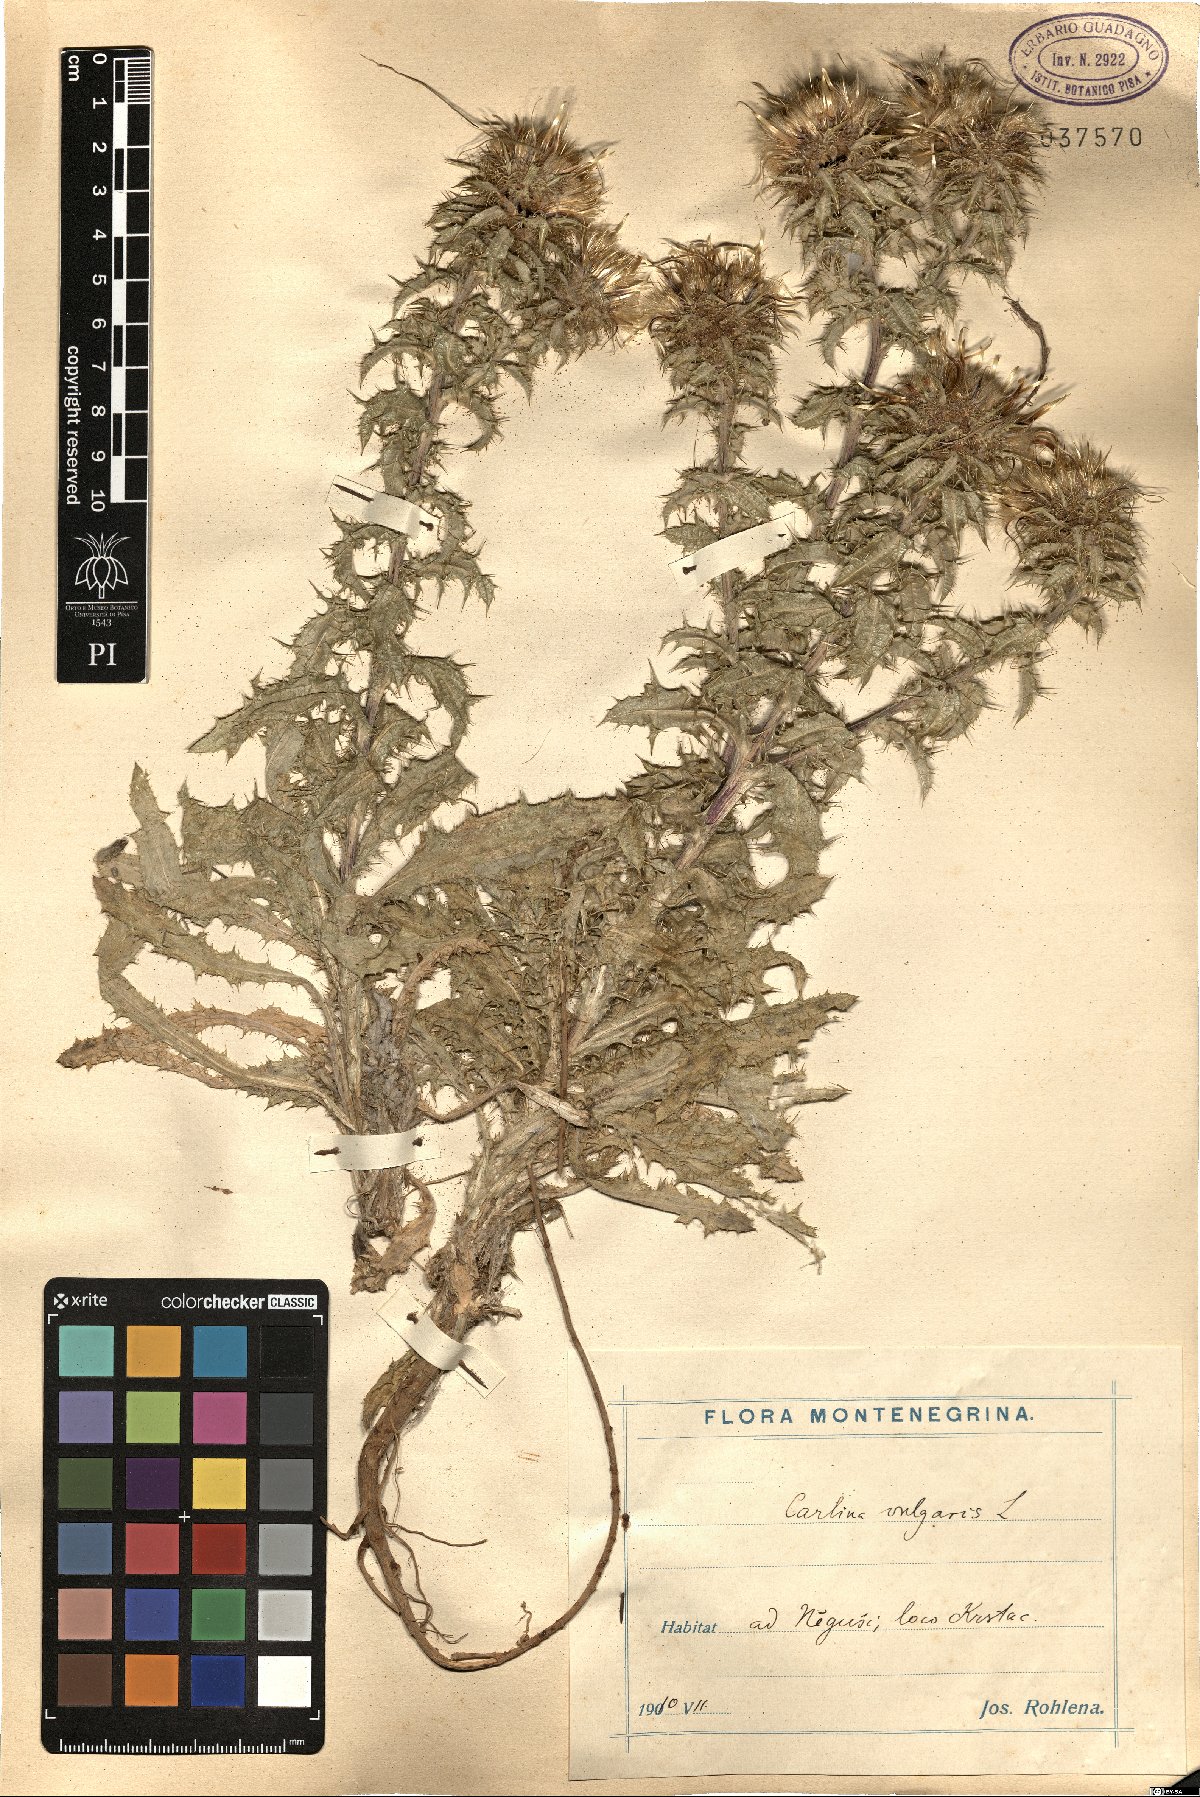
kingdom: Plantae
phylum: Tracheophyta
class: Magnoliopsida
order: Asterales
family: Asteraceae
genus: Carlina
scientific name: Carlina vulgaris
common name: Carline thistle
